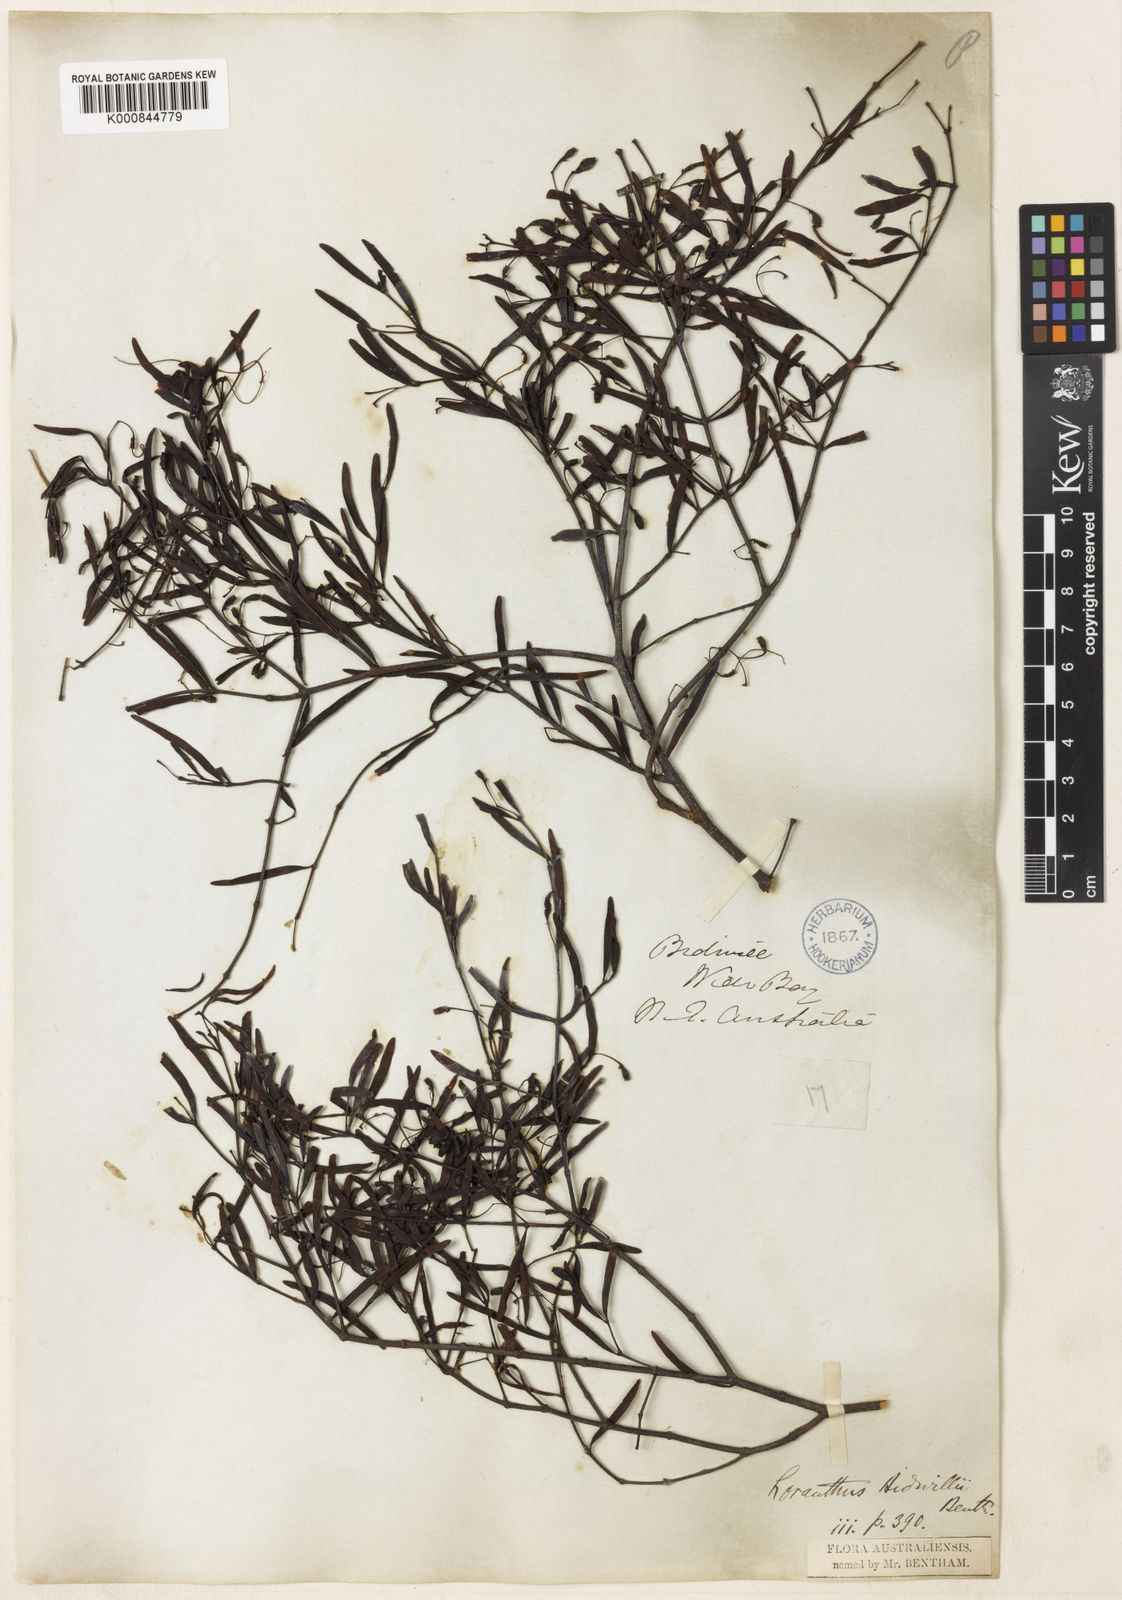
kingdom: Plantae
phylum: Tracheophyta
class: Magnoliopsida
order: Santalales
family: Loranthaceae
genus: Muellerina
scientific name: Muellerina bidwillii
